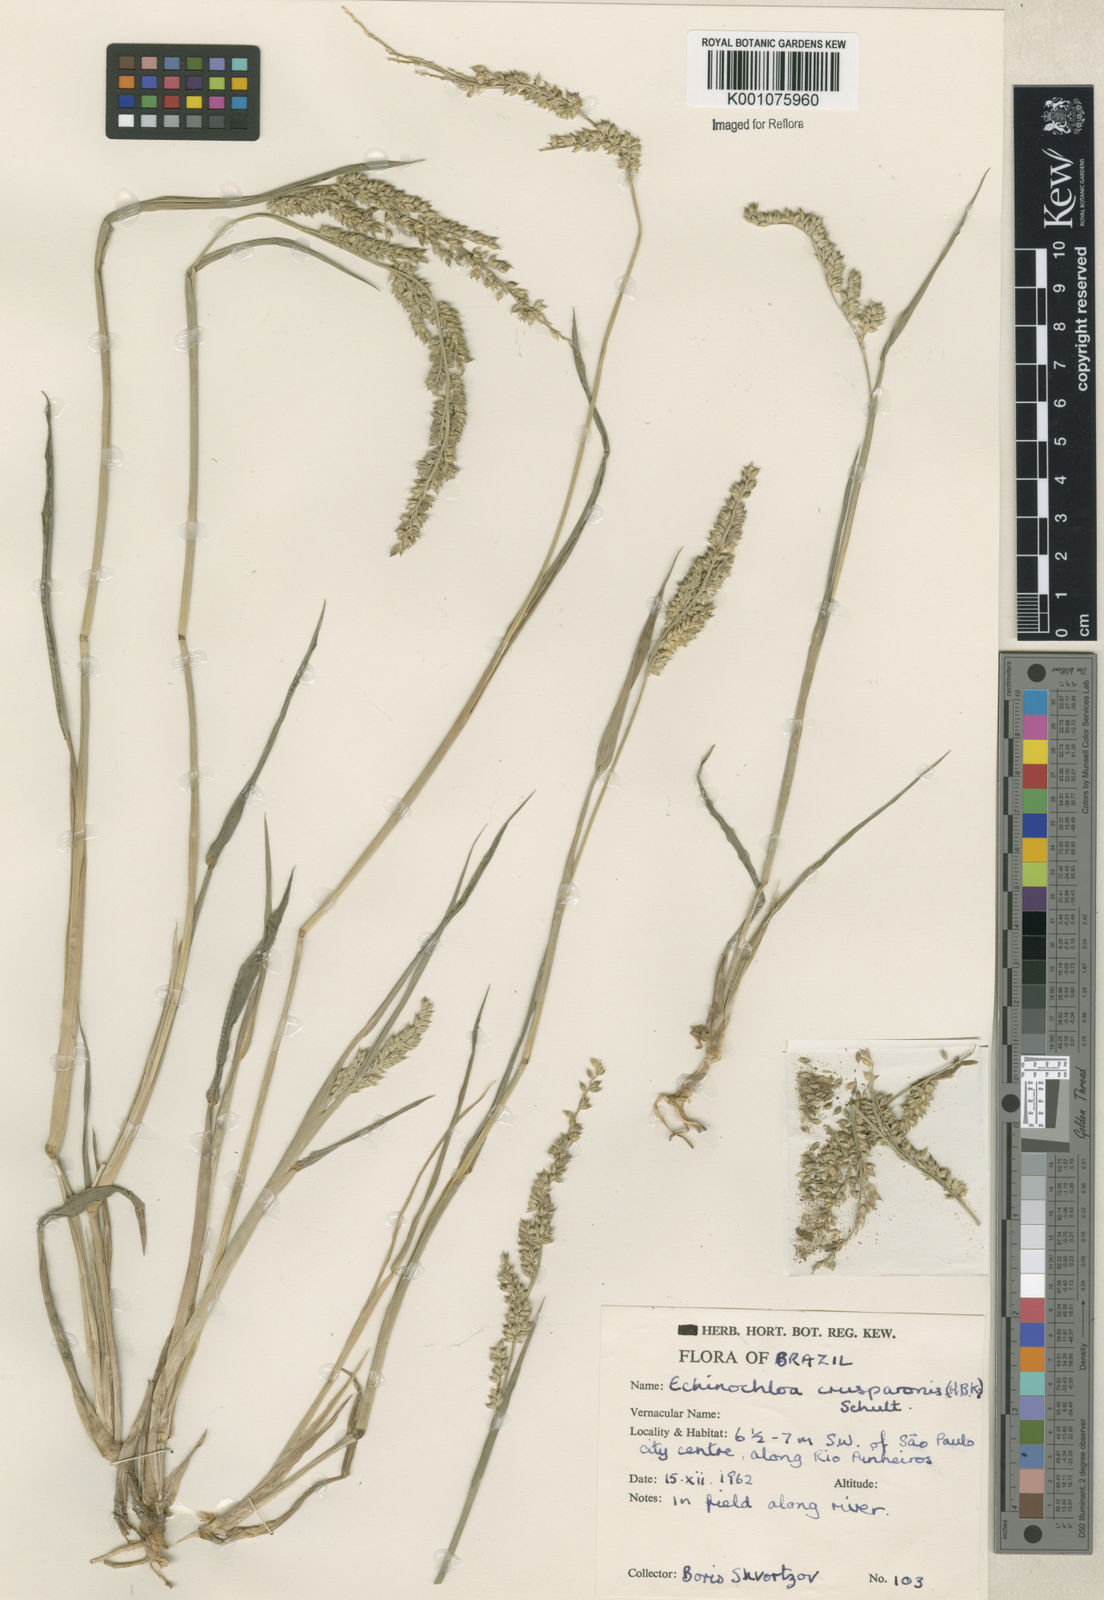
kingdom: Plantae
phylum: Tracheophyta
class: Liliopsida
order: Poales
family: Poaceae
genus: Echinochloa
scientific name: Echinochloa crus-pavonis
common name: Gulf cockspur grass
